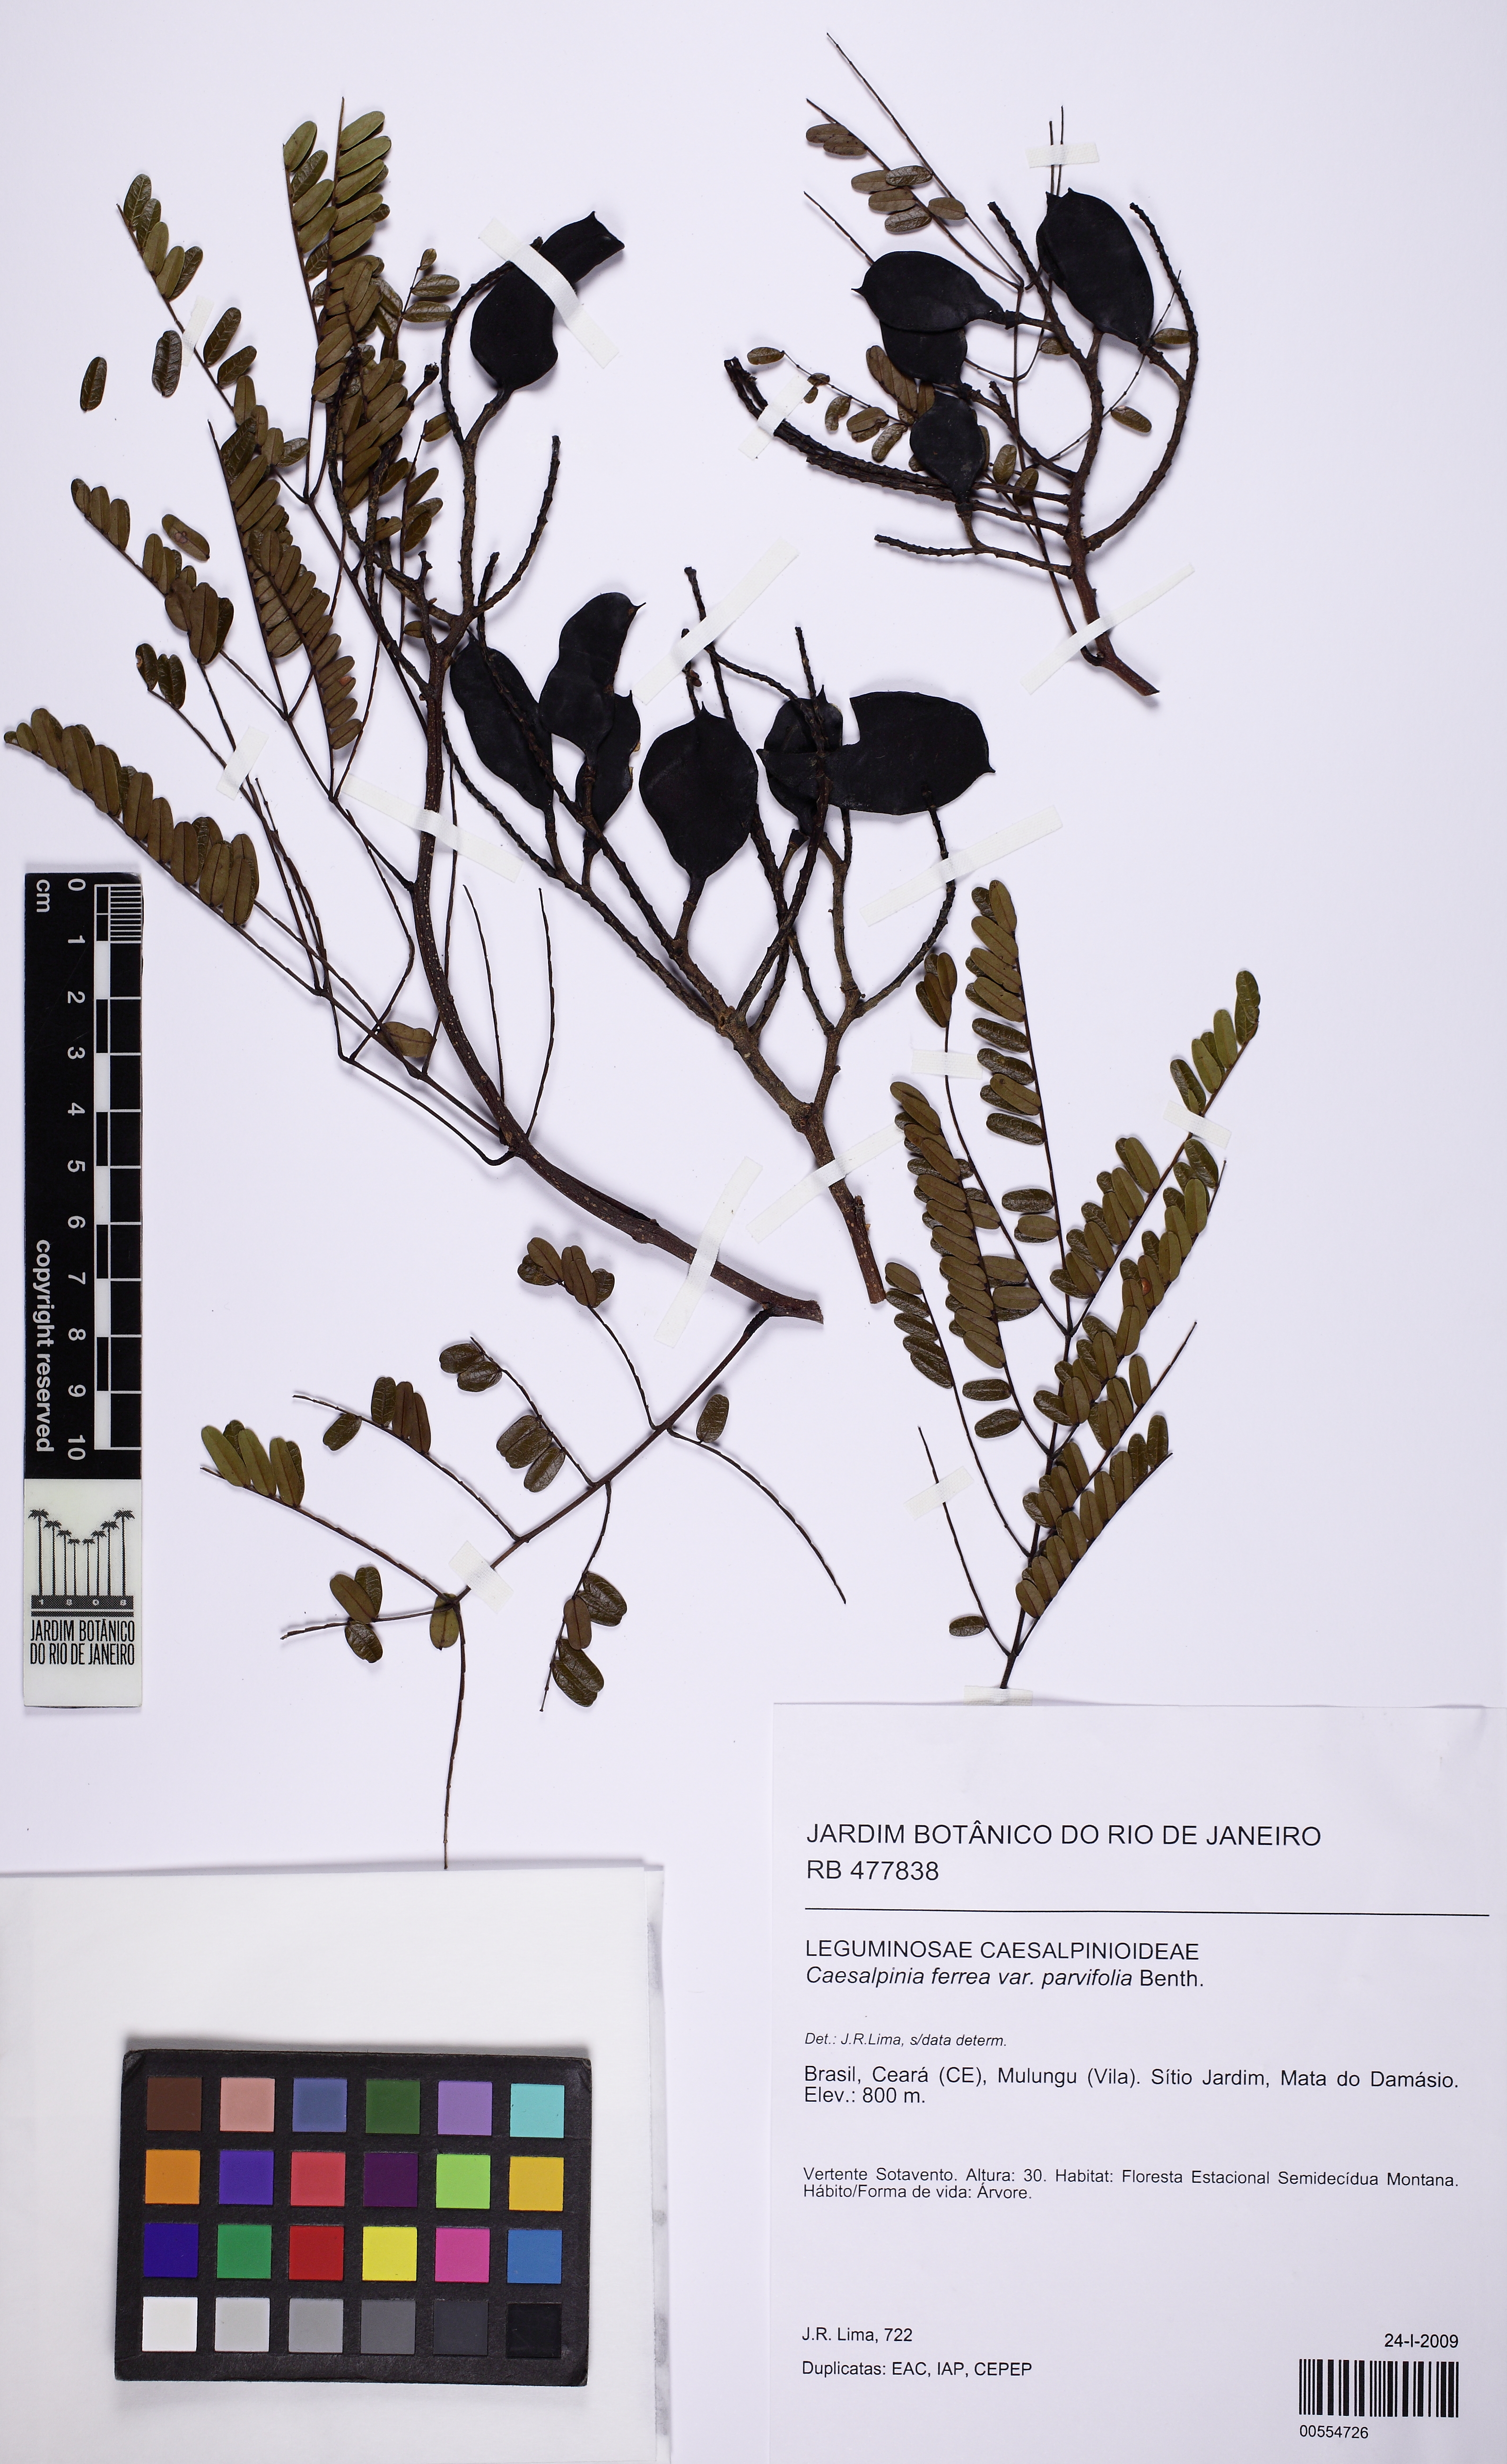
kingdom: Plantae
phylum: Tracheophyta
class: Magnoliopsida
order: Fabales
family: Fabaceae
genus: Libidibia
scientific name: Libidibia ferrea
